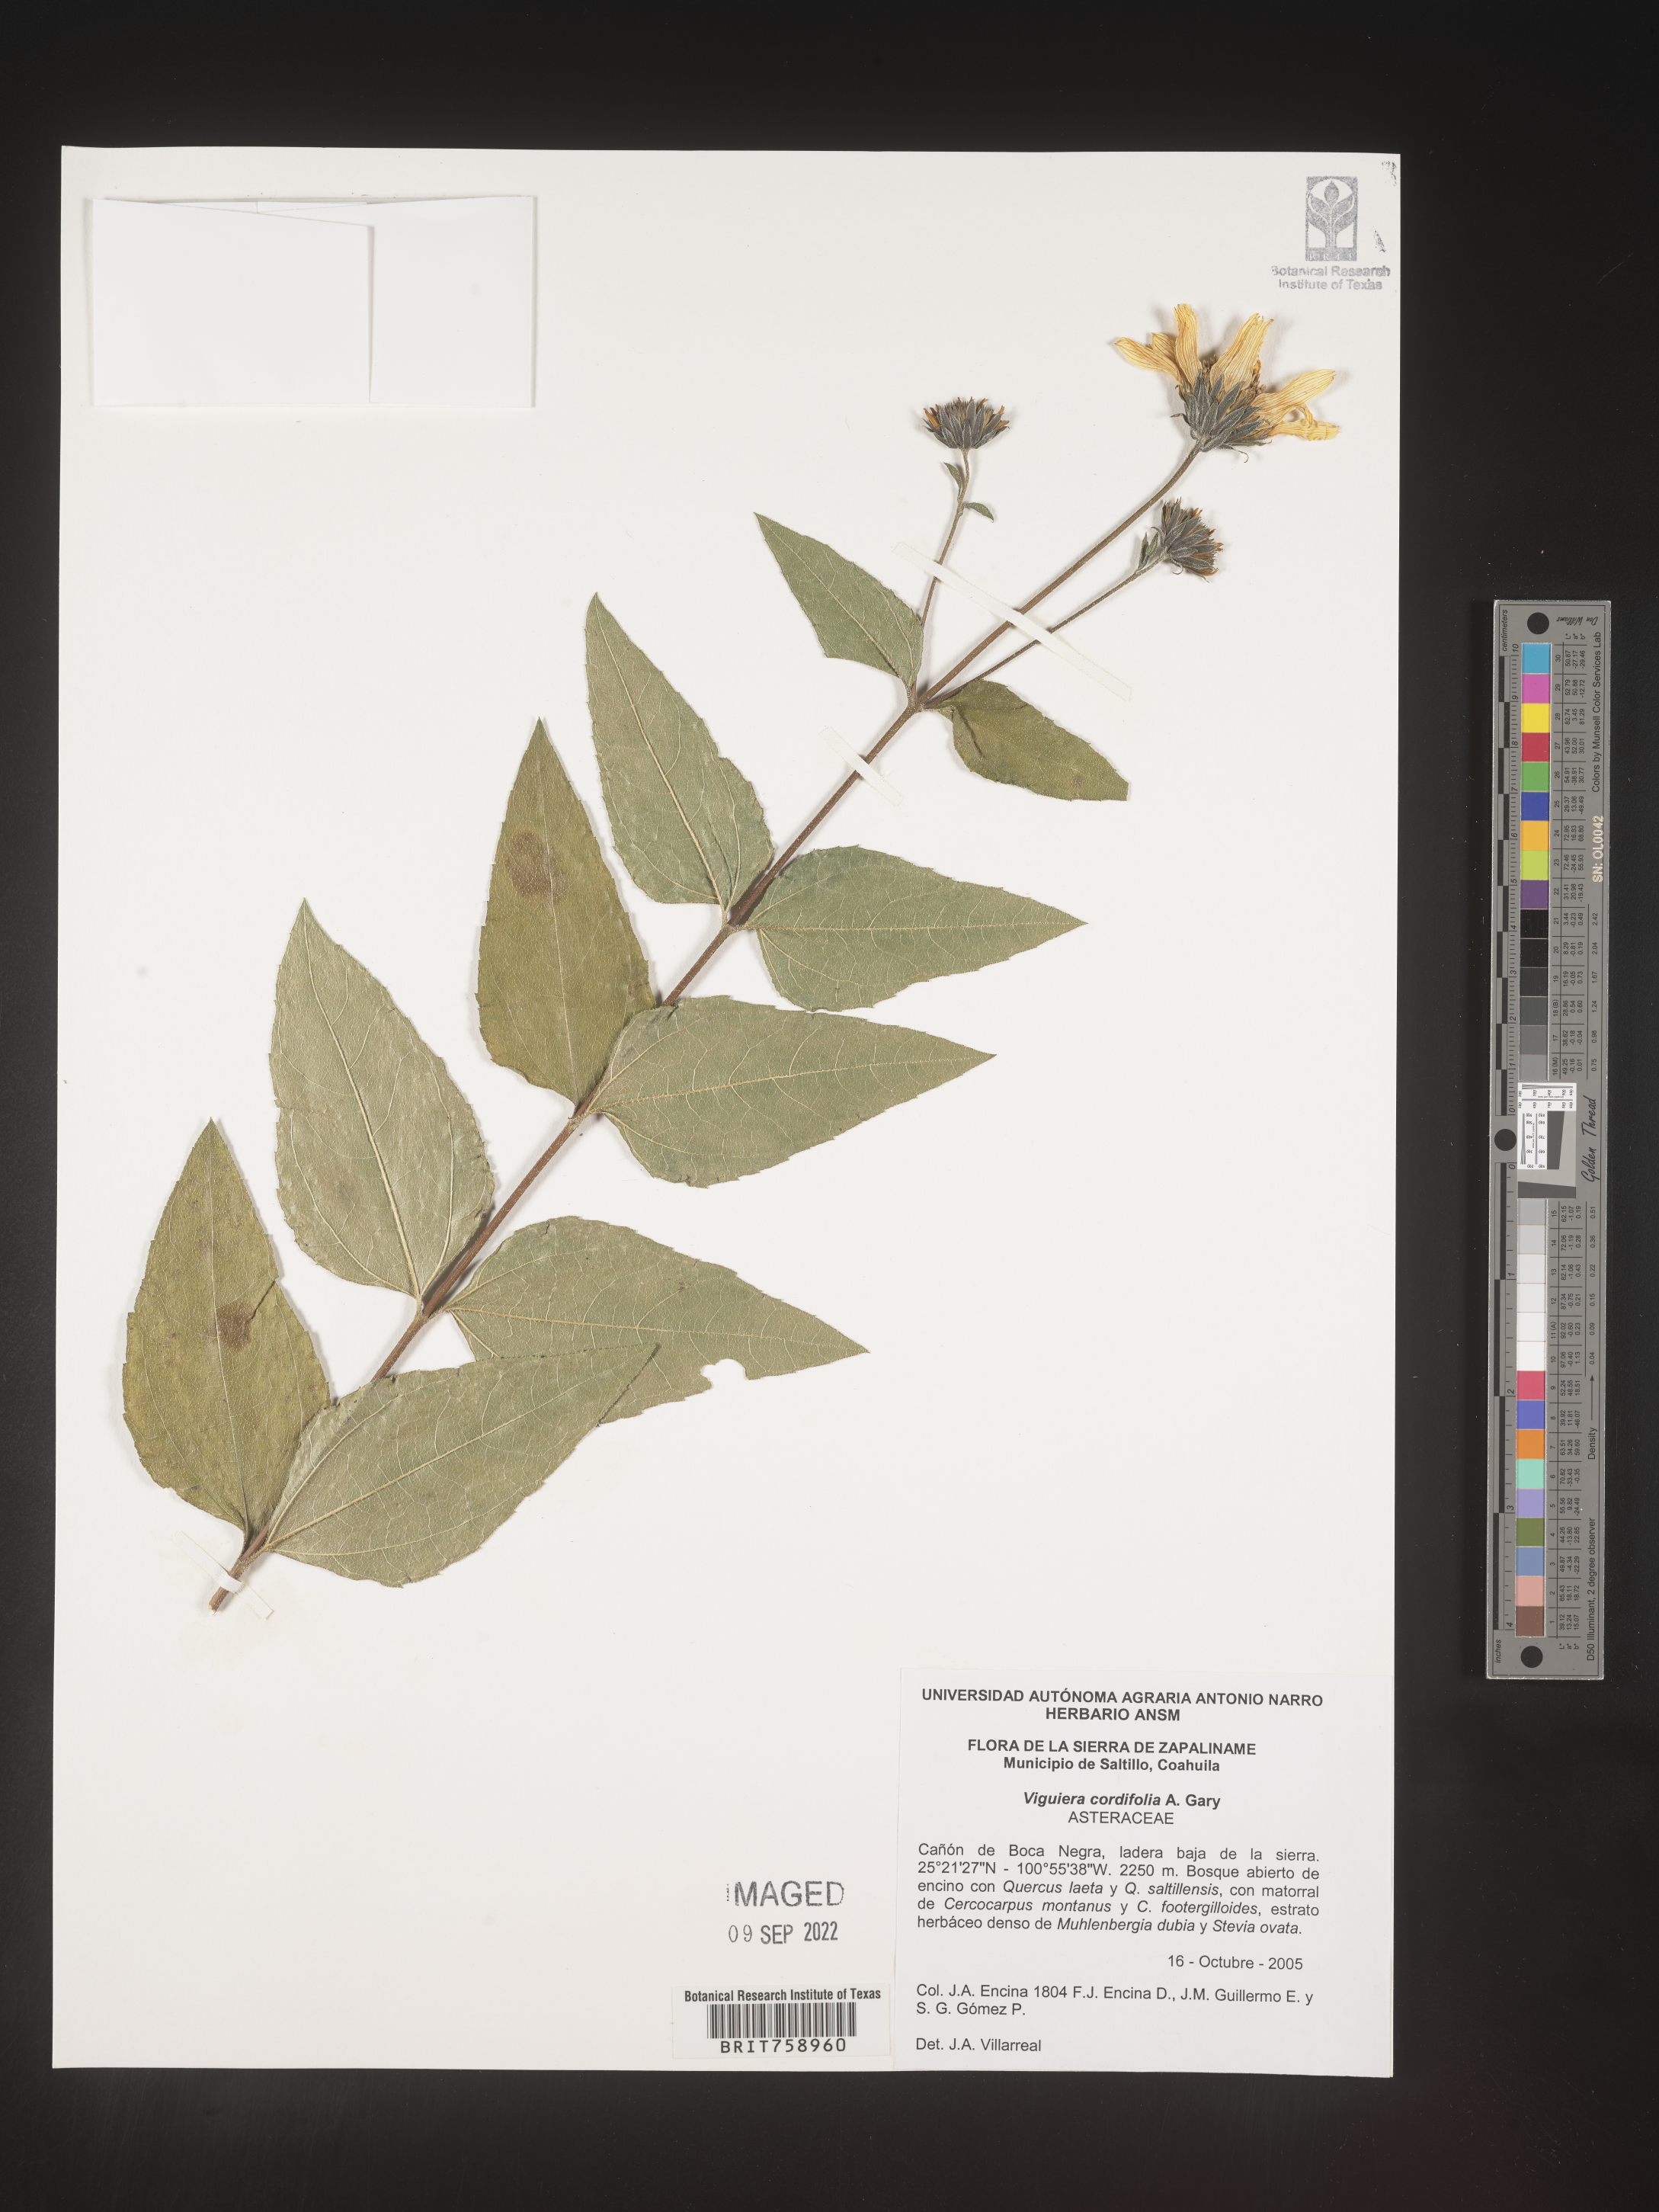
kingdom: Plantae
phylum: Tracheophyta
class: Magnoliopsida
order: Asterales
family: Asteraceae
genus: Viguiera
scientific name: Viguiera
